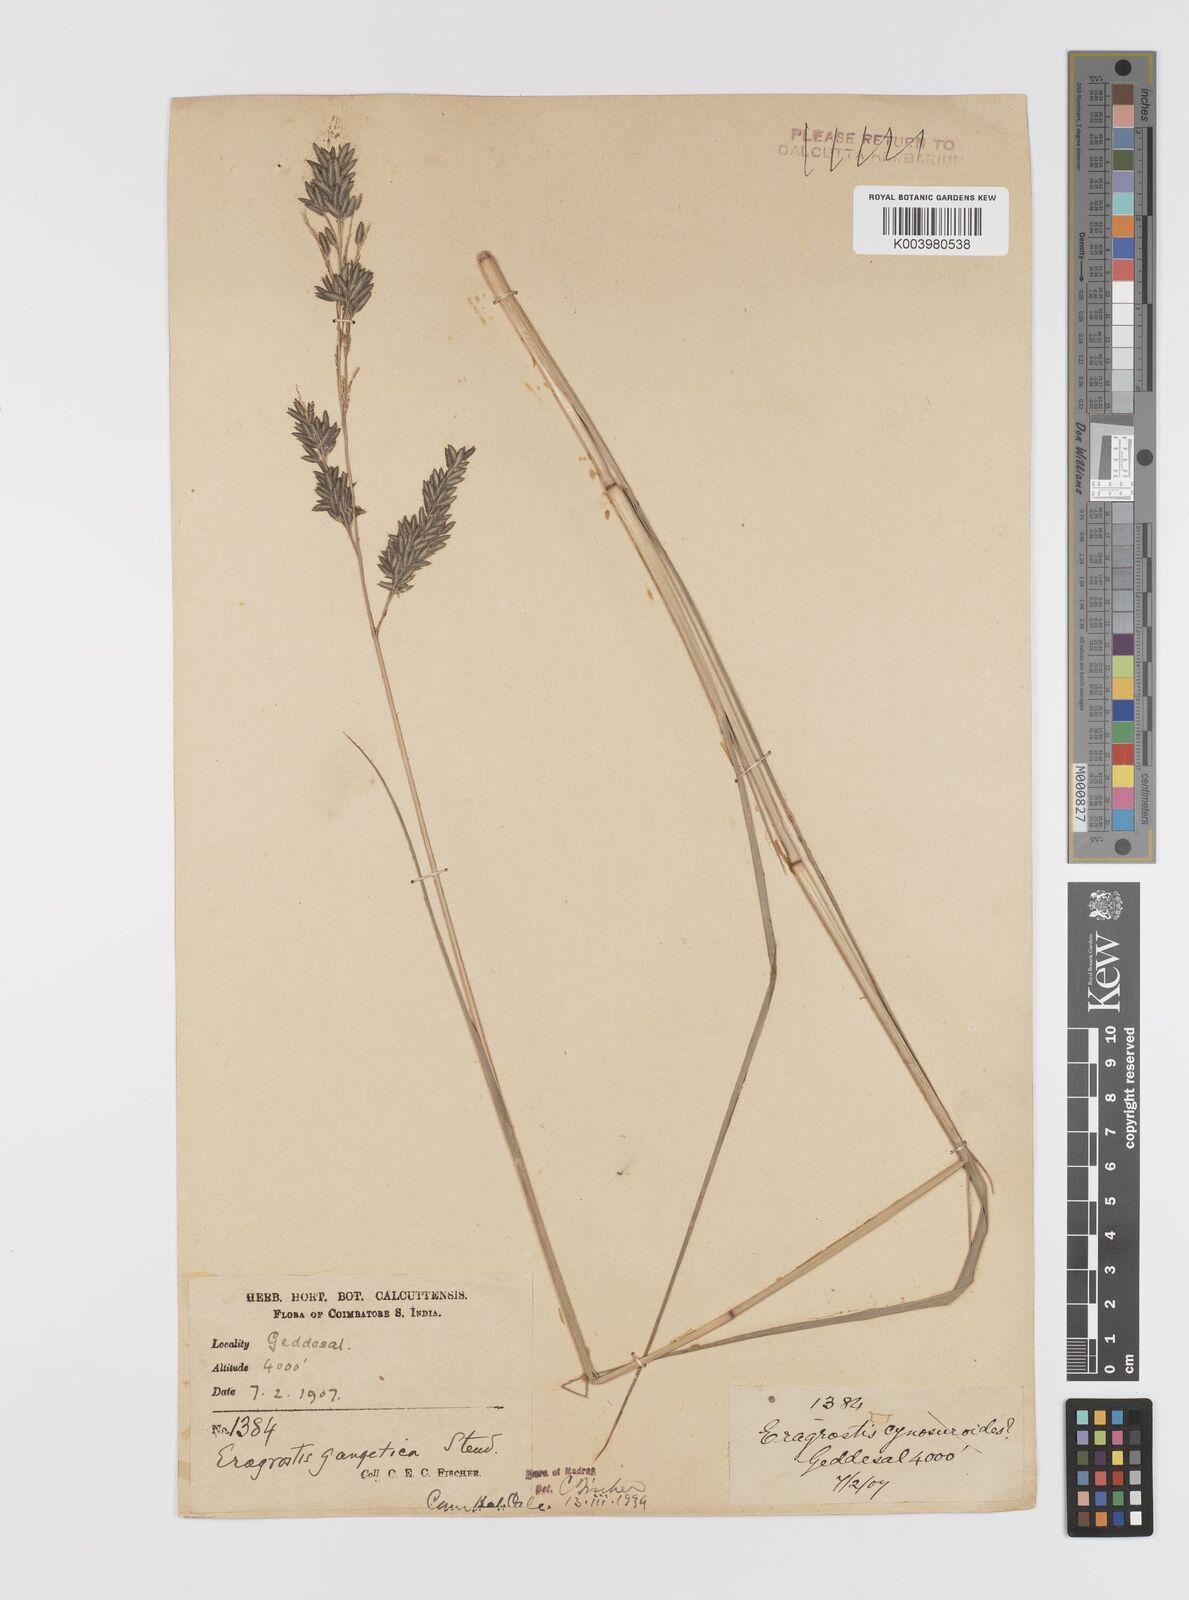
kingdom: Plantae
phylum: Tracheophyta
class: Liliopsida
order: Poales
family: Poaceae
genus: Eragrostis
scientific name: Eragrostis
